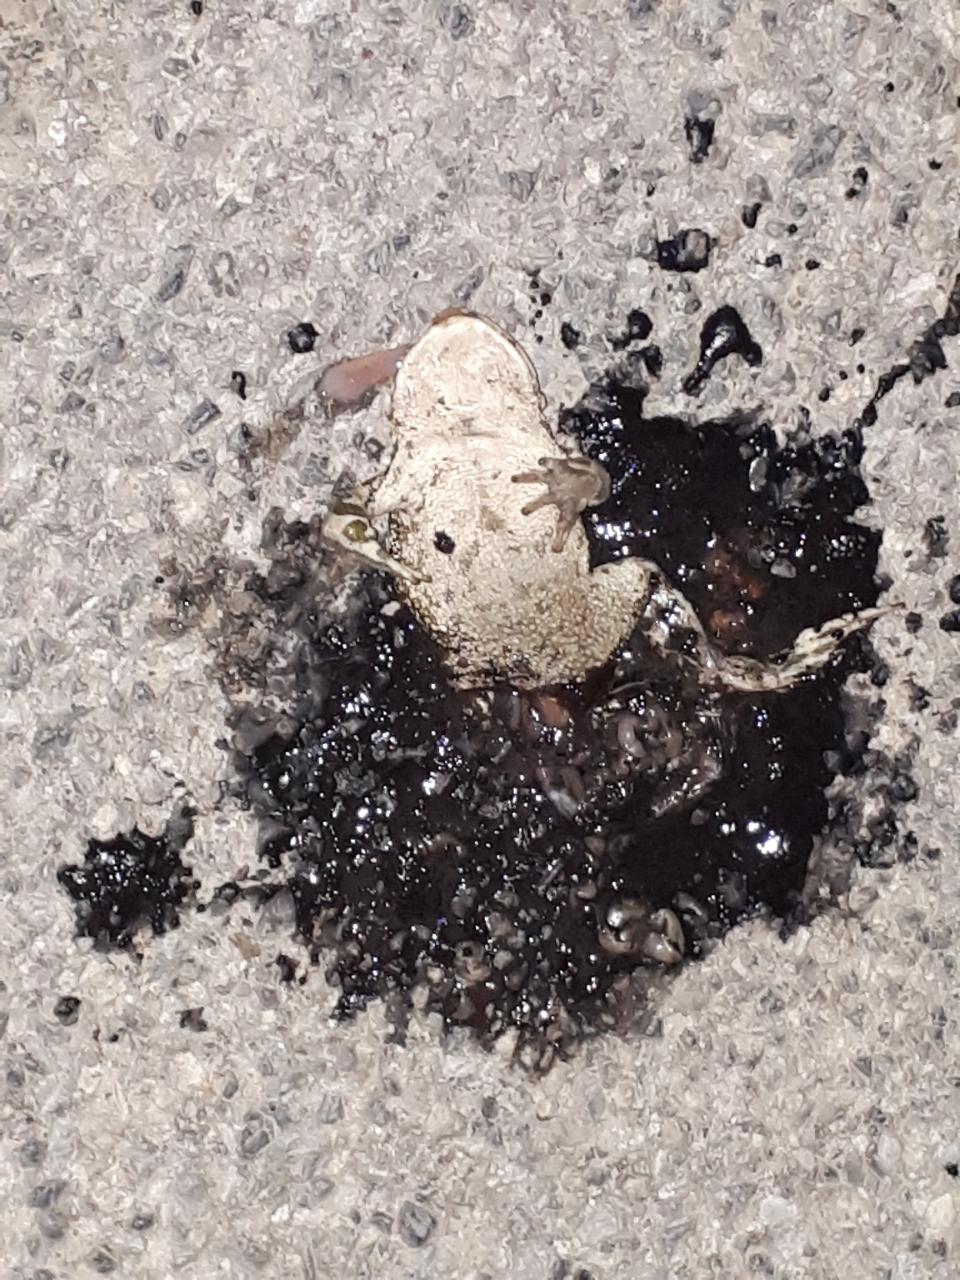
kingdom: Animalia
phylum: Chordata
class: Amphibia
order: Anura
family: Bufonidae
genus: Bufotes
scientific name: Bufotes viridis
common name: European green toad
